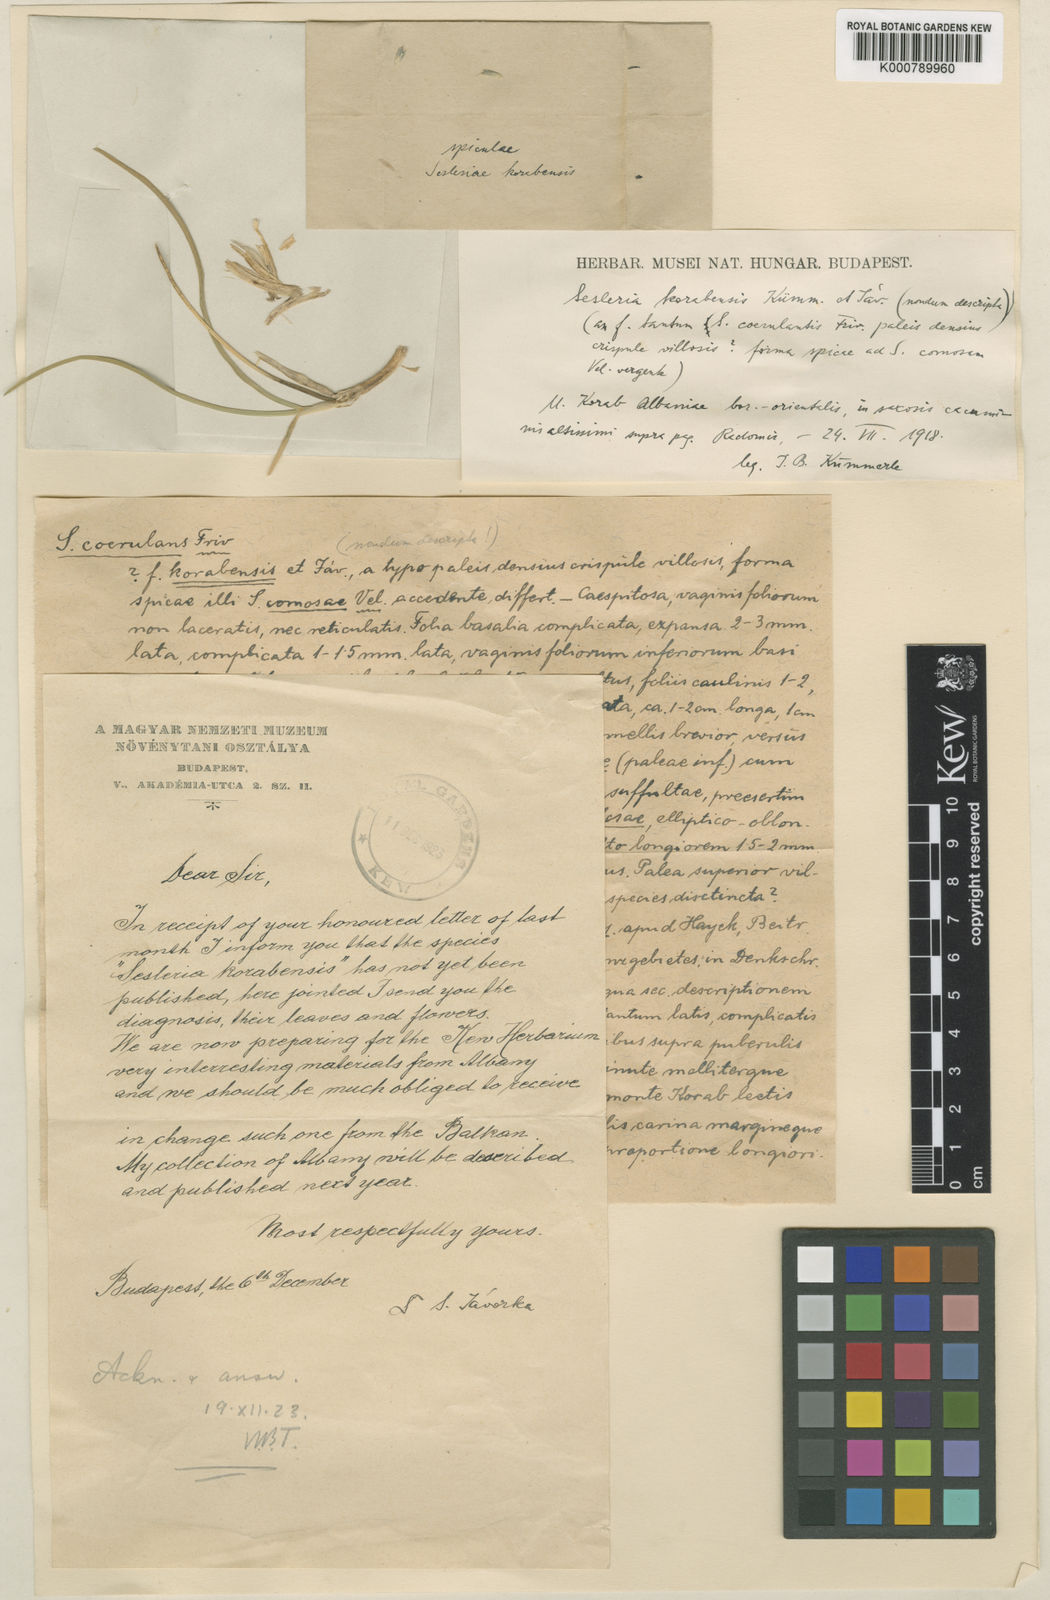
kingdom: Plantae
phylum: Tracheophyta
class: Liliopsida
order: Poales
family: Poaceae
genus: Sesleria
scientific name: Sesleria korabensis
